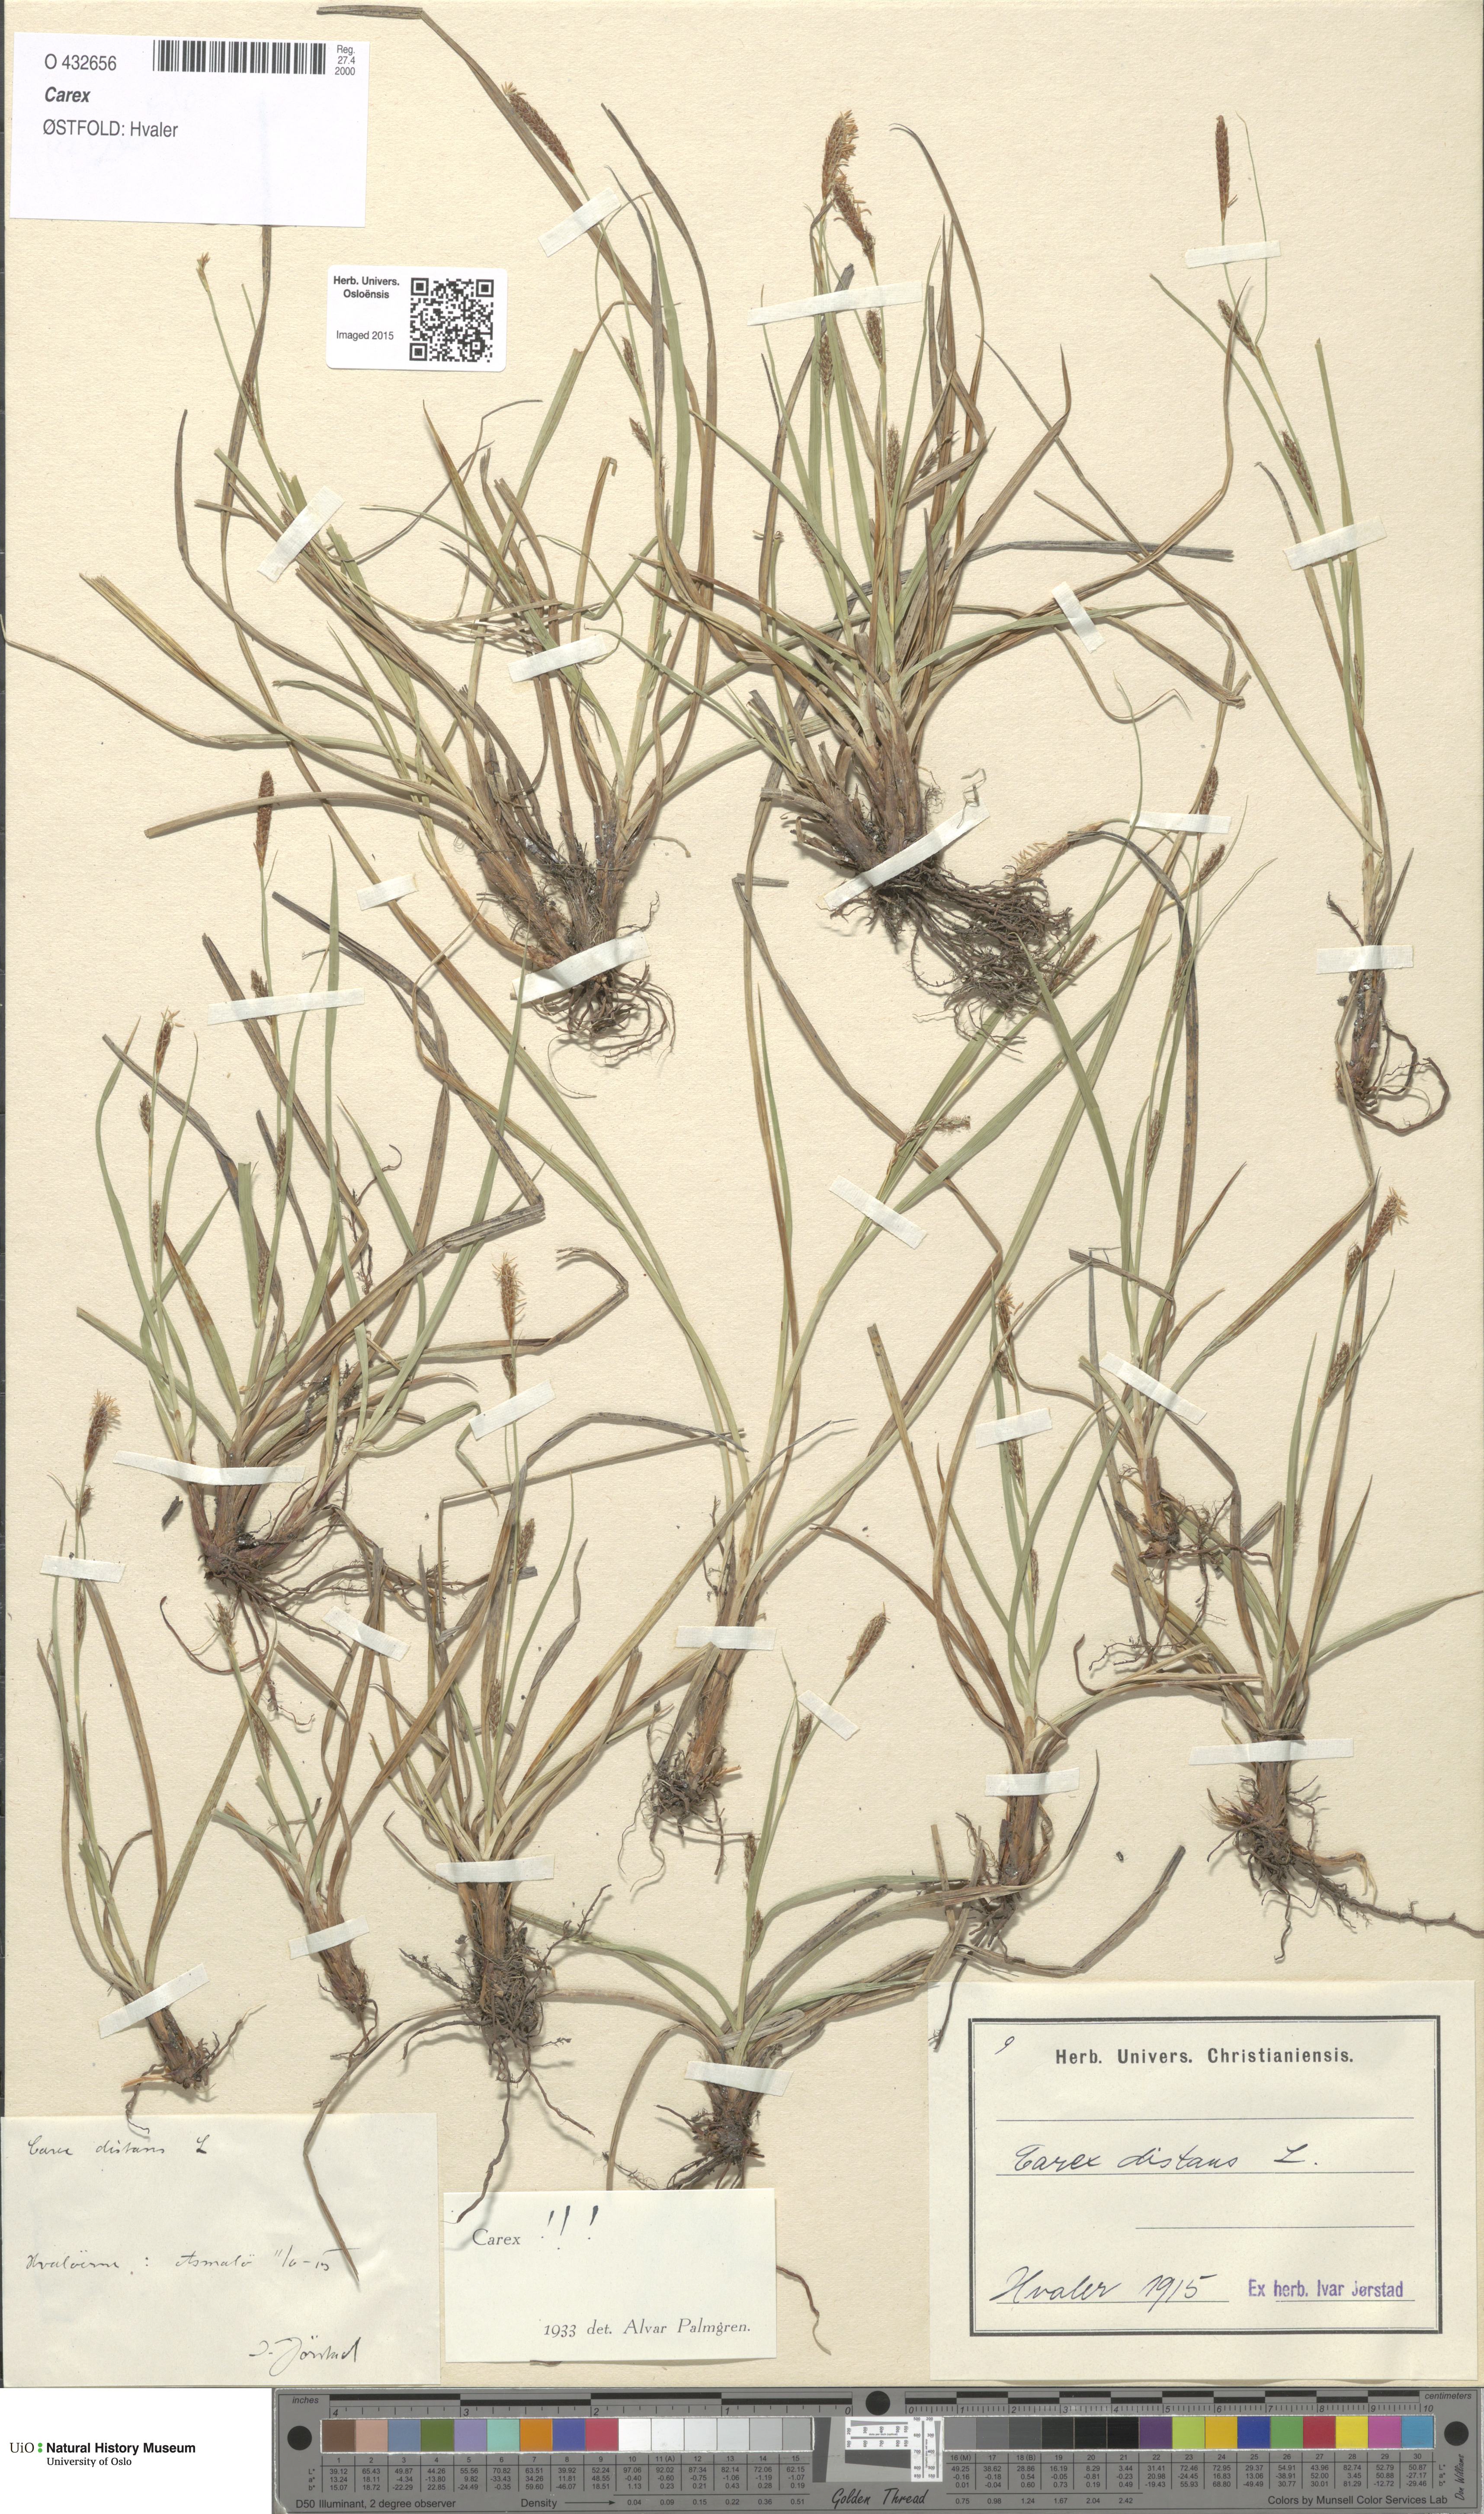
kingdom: Plantae
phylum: Tracheophyta
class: Liliopsida
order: Poales
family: Cyperaceae
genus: Carex
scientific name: Carex distans
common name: Distant sedge
